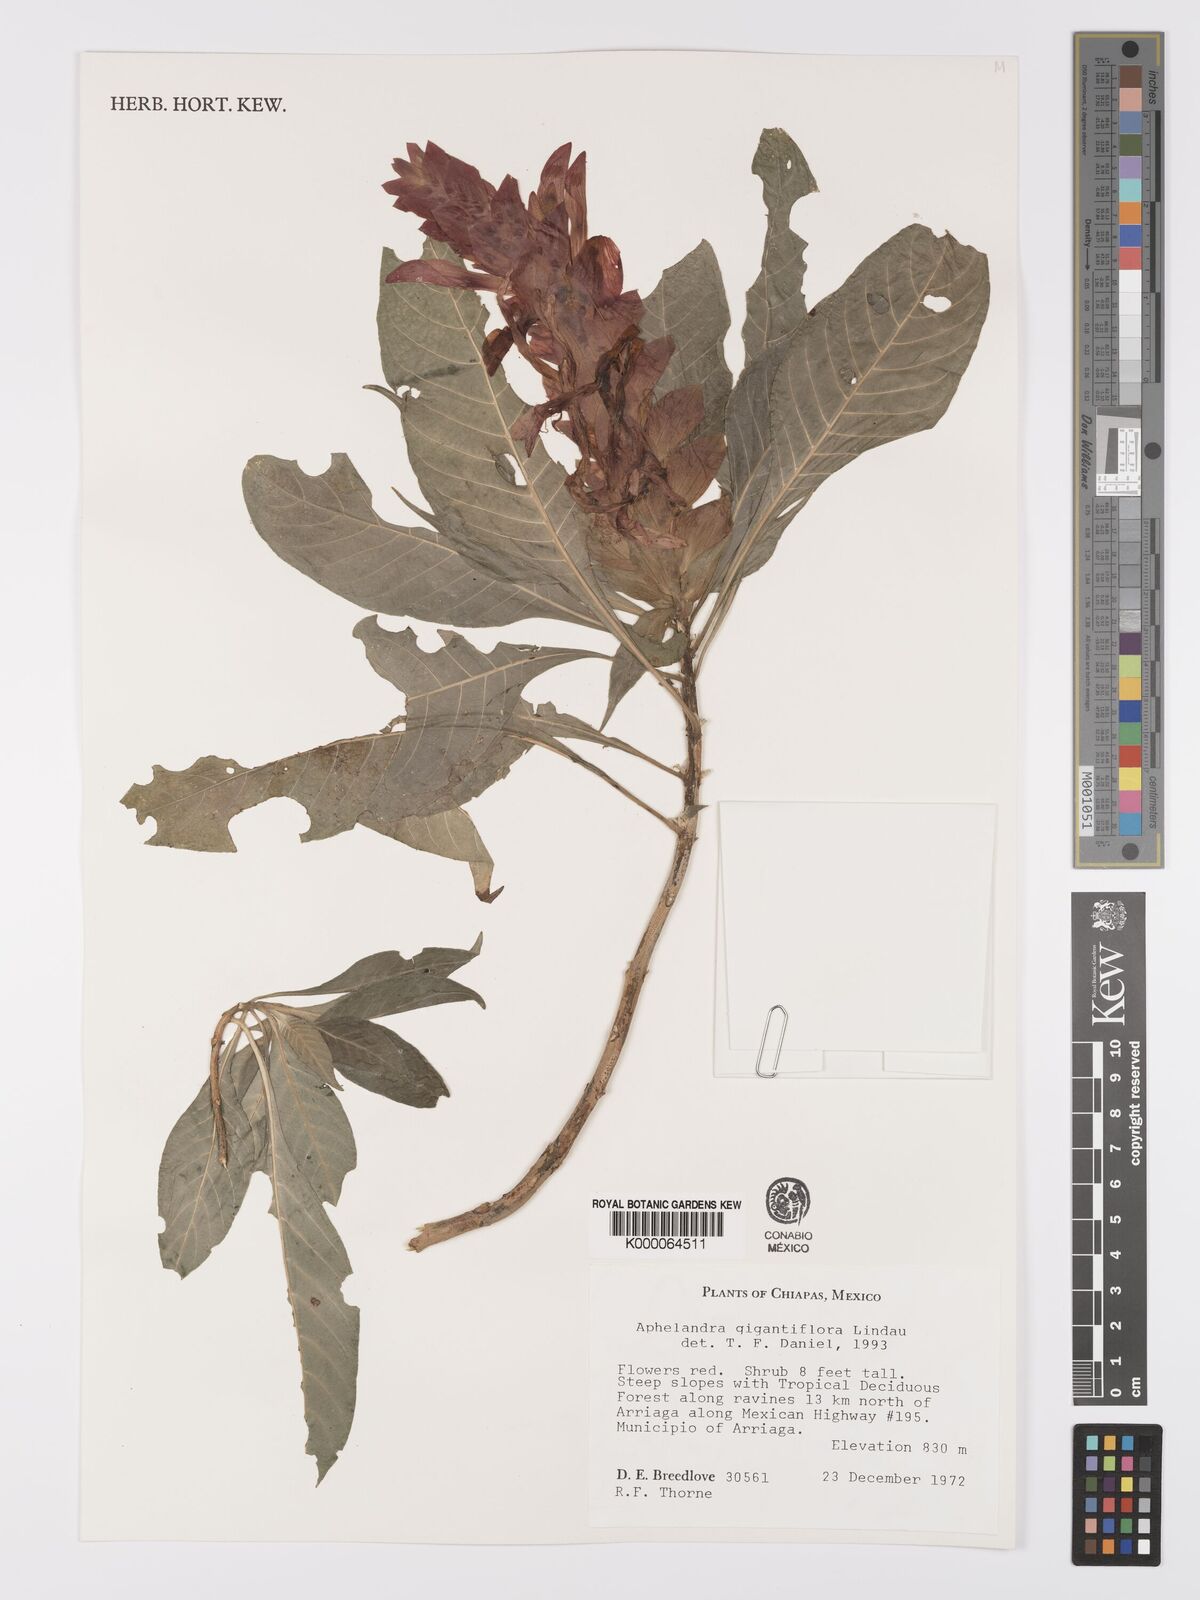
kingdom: Plantae
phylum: Tracheophyta
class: Magnoliopsida
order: Lamiales
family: Acanthaceae
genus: Aphelandra
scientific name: Aphelandra gigantiflora
